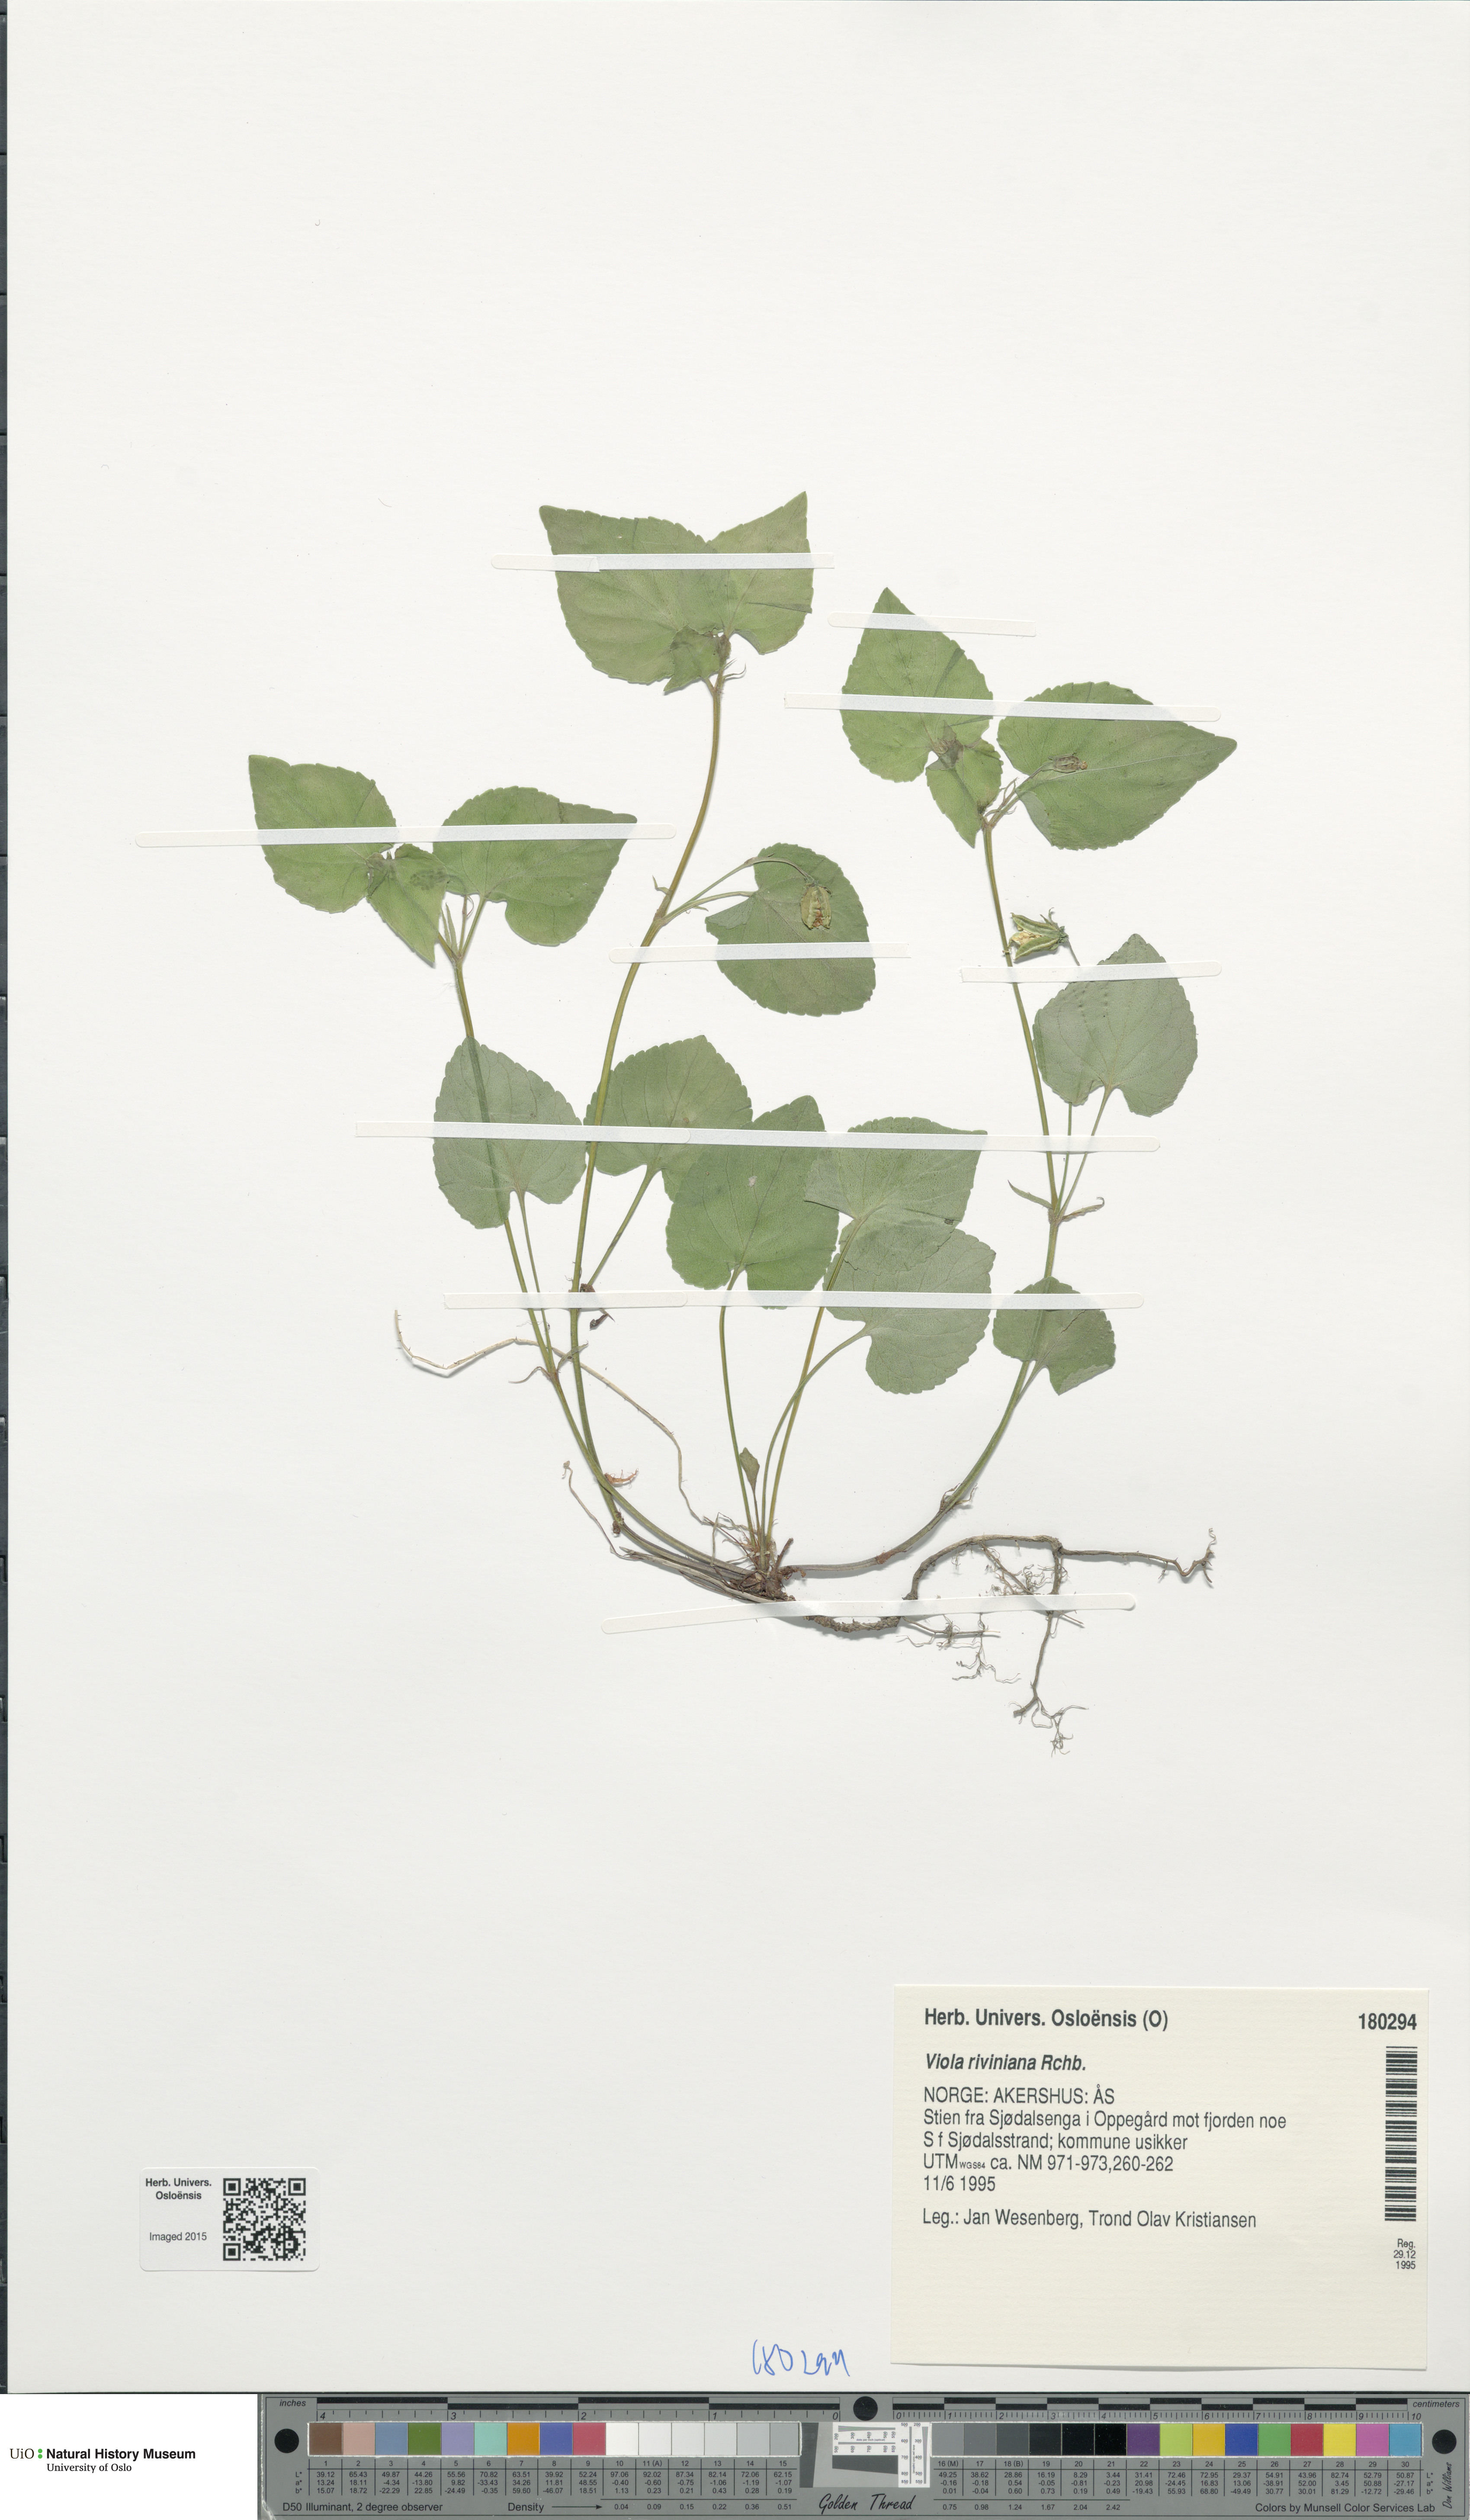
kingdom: Plantae
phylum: Tracheophyta
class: Magnoliopsida
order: Malpighiales
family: Violaceae
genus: Viola
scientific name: Viola riviniana
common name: Common dog-violet
